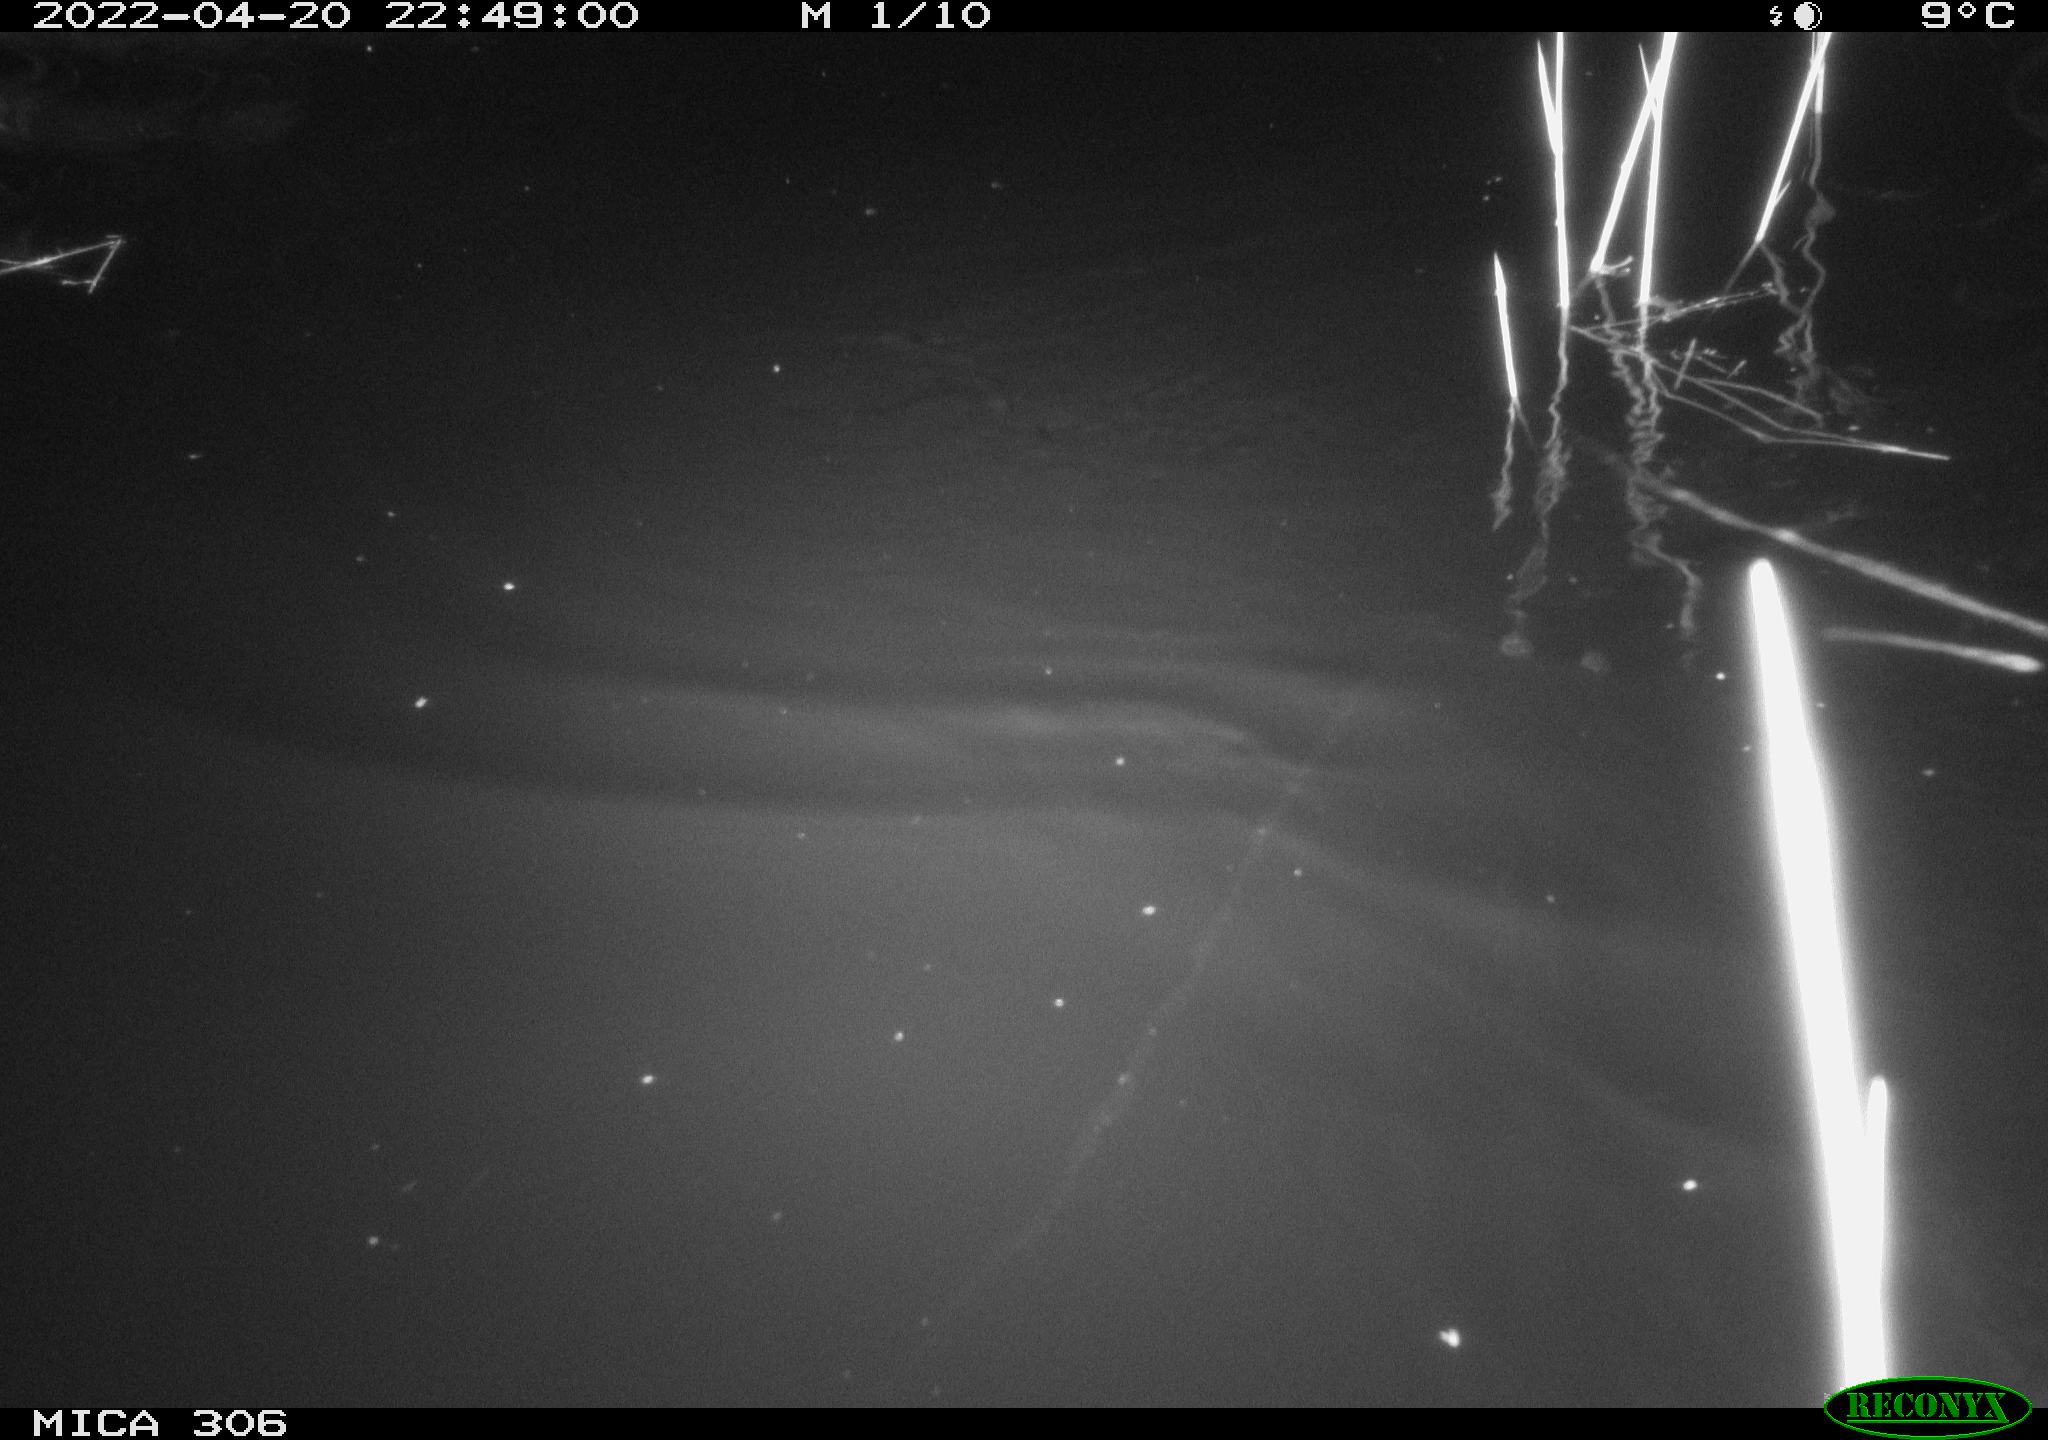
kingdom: Animalia
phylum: Chordata
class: Aves
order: Anseriformes
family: Anatidae
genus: Anas
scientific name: Anas platyrhynchos
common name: Mallard
